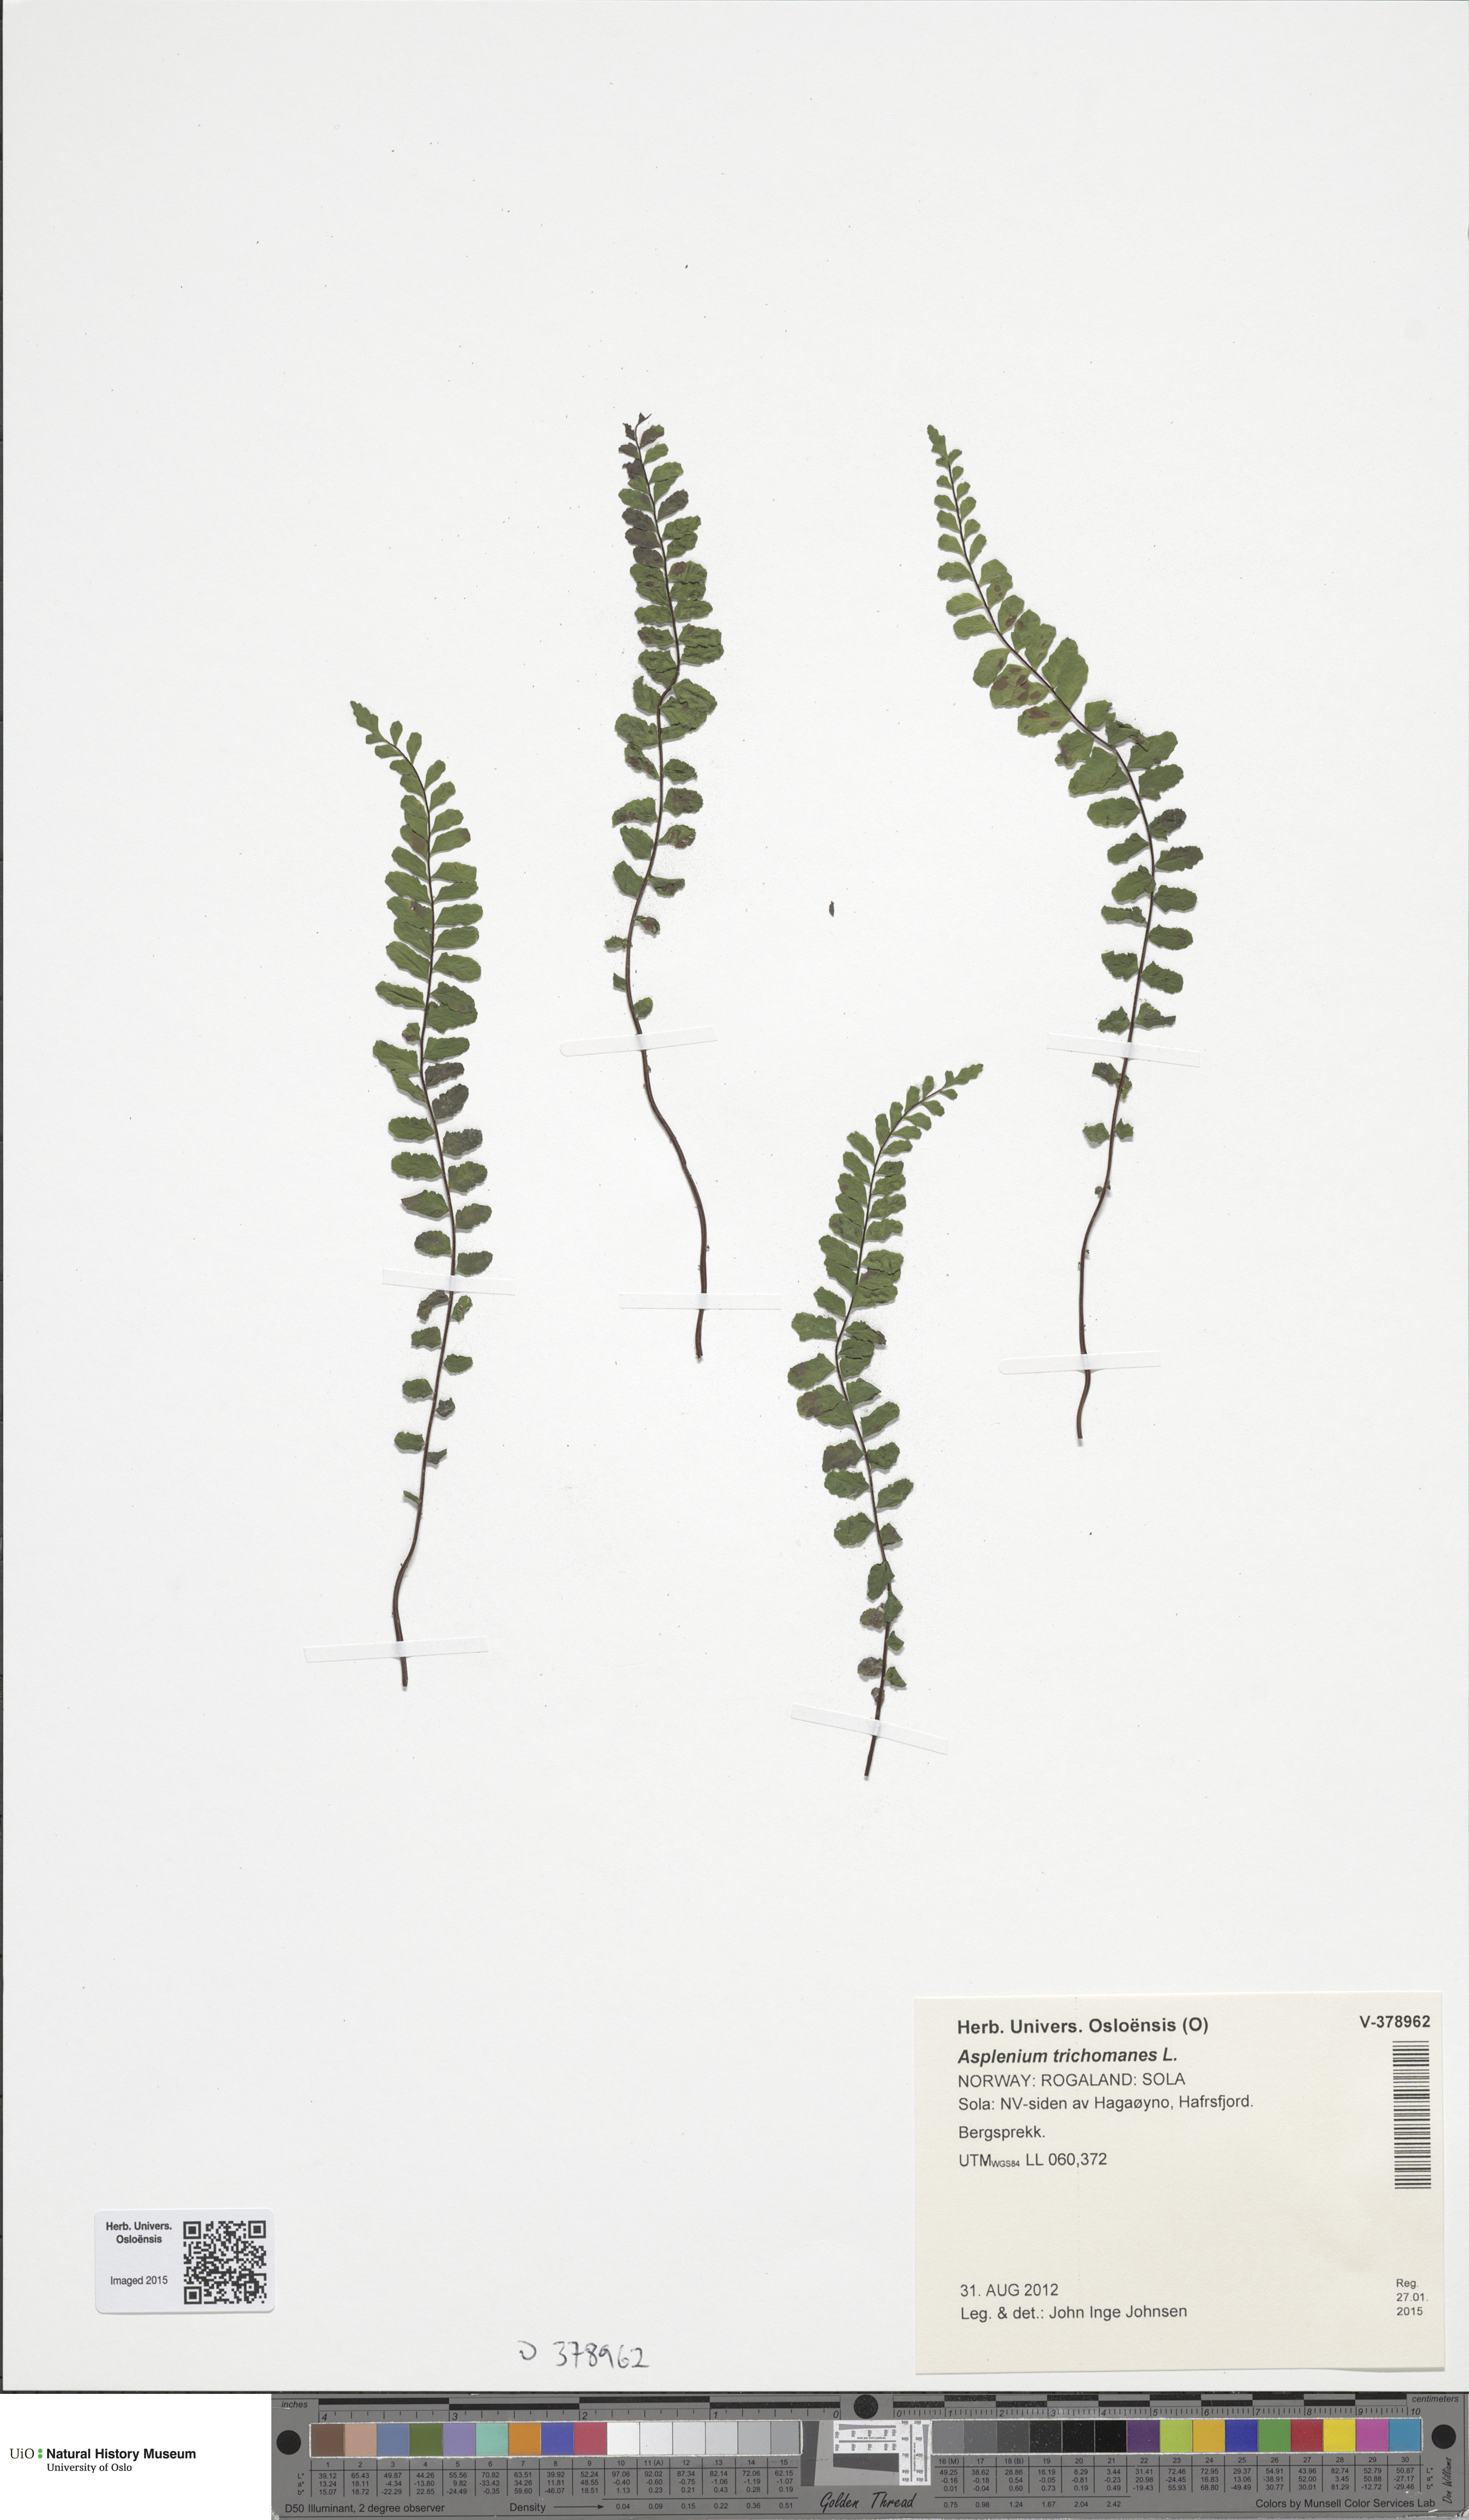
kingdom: Plantae
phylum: Tracheophyta
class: Polypodiopsida
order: Polypodiales
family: Aspleniaceae
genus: Asplenium
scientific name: Asplenium trichomanes
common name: Maidenhair spleenwort
